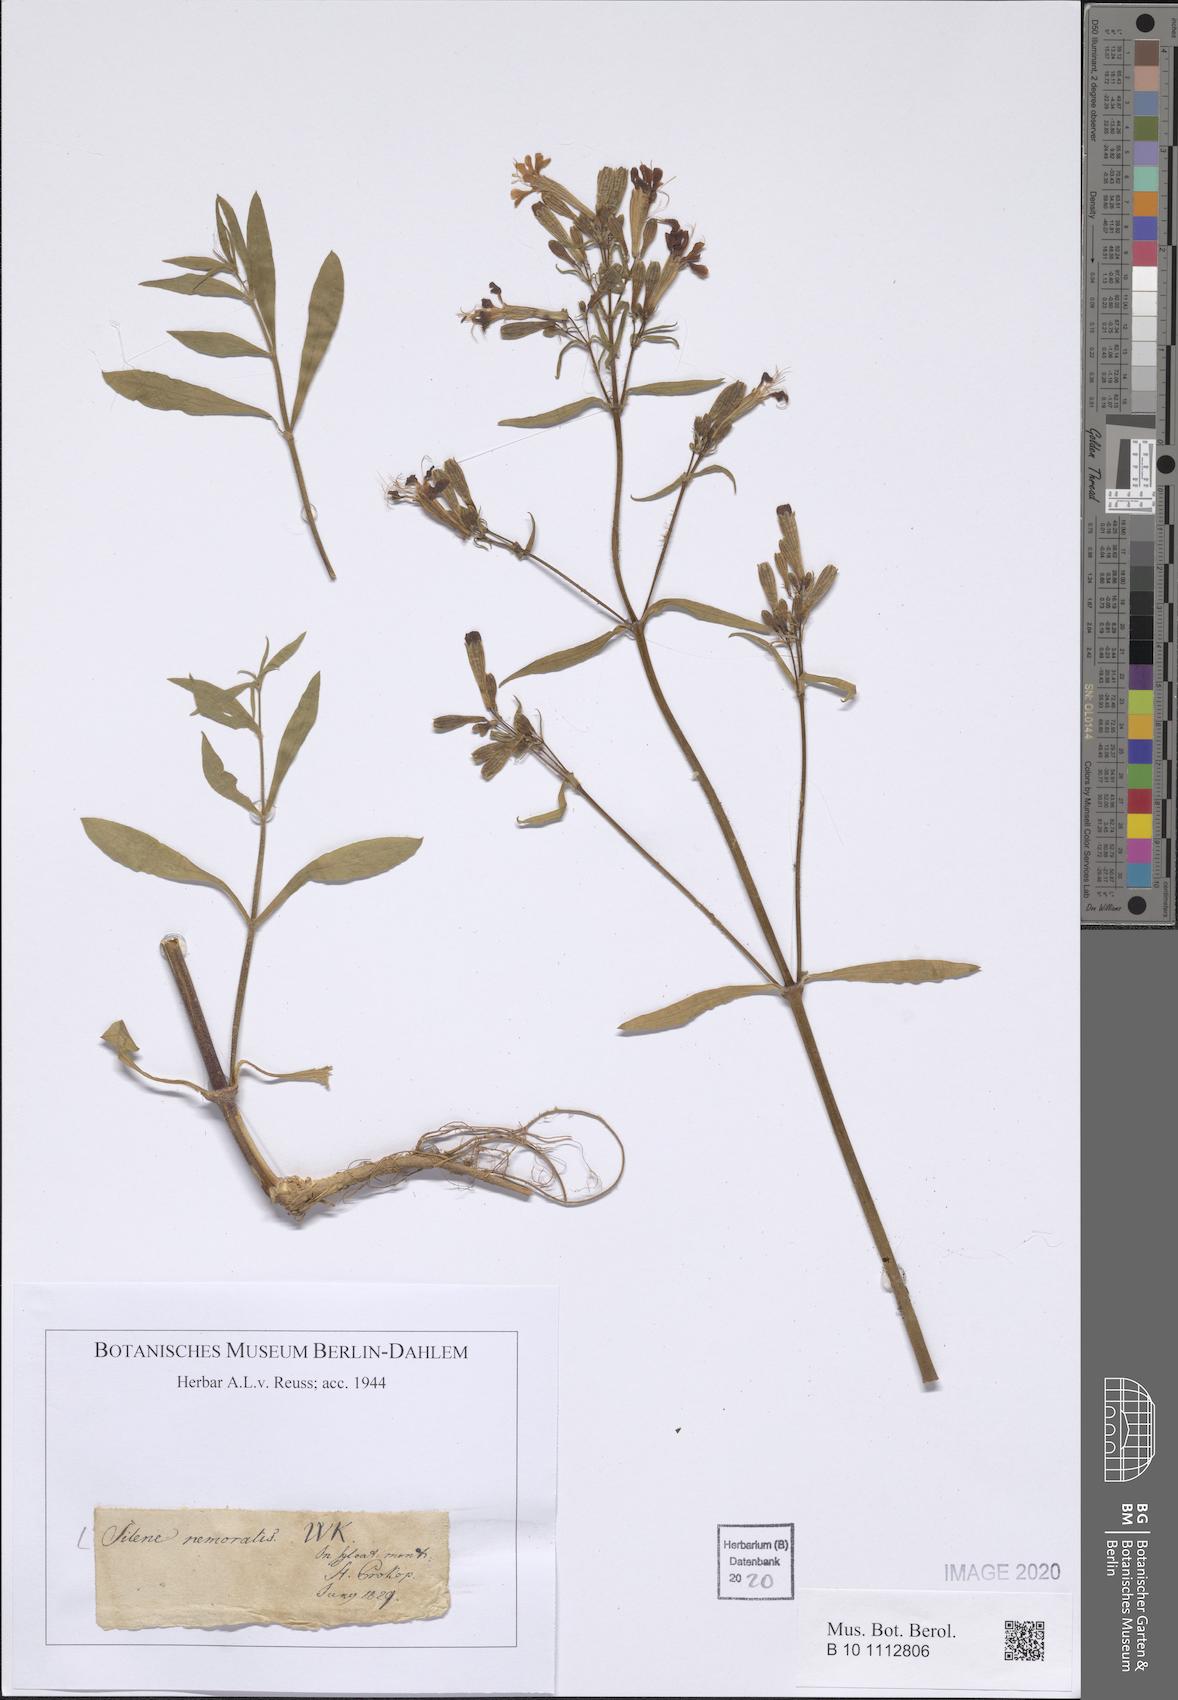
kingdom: Plantae
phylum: Tracheophyta
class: Magnoliopsida
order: Caryophyllales
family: Caryophyllaceae
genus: Silene
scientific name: Silene nemoralis
